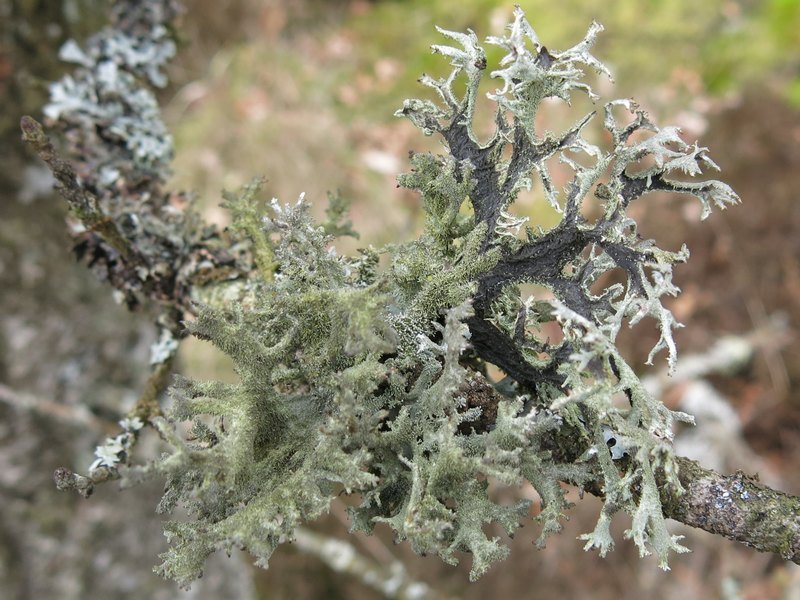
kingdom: Fungi
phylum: Ascomycota
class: Lecanoromycetes
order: Lecanorales
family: Parmeliaceae
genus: Pseudevernia
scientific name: Pseudevernia furfuracea
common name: grå fyrrelav
